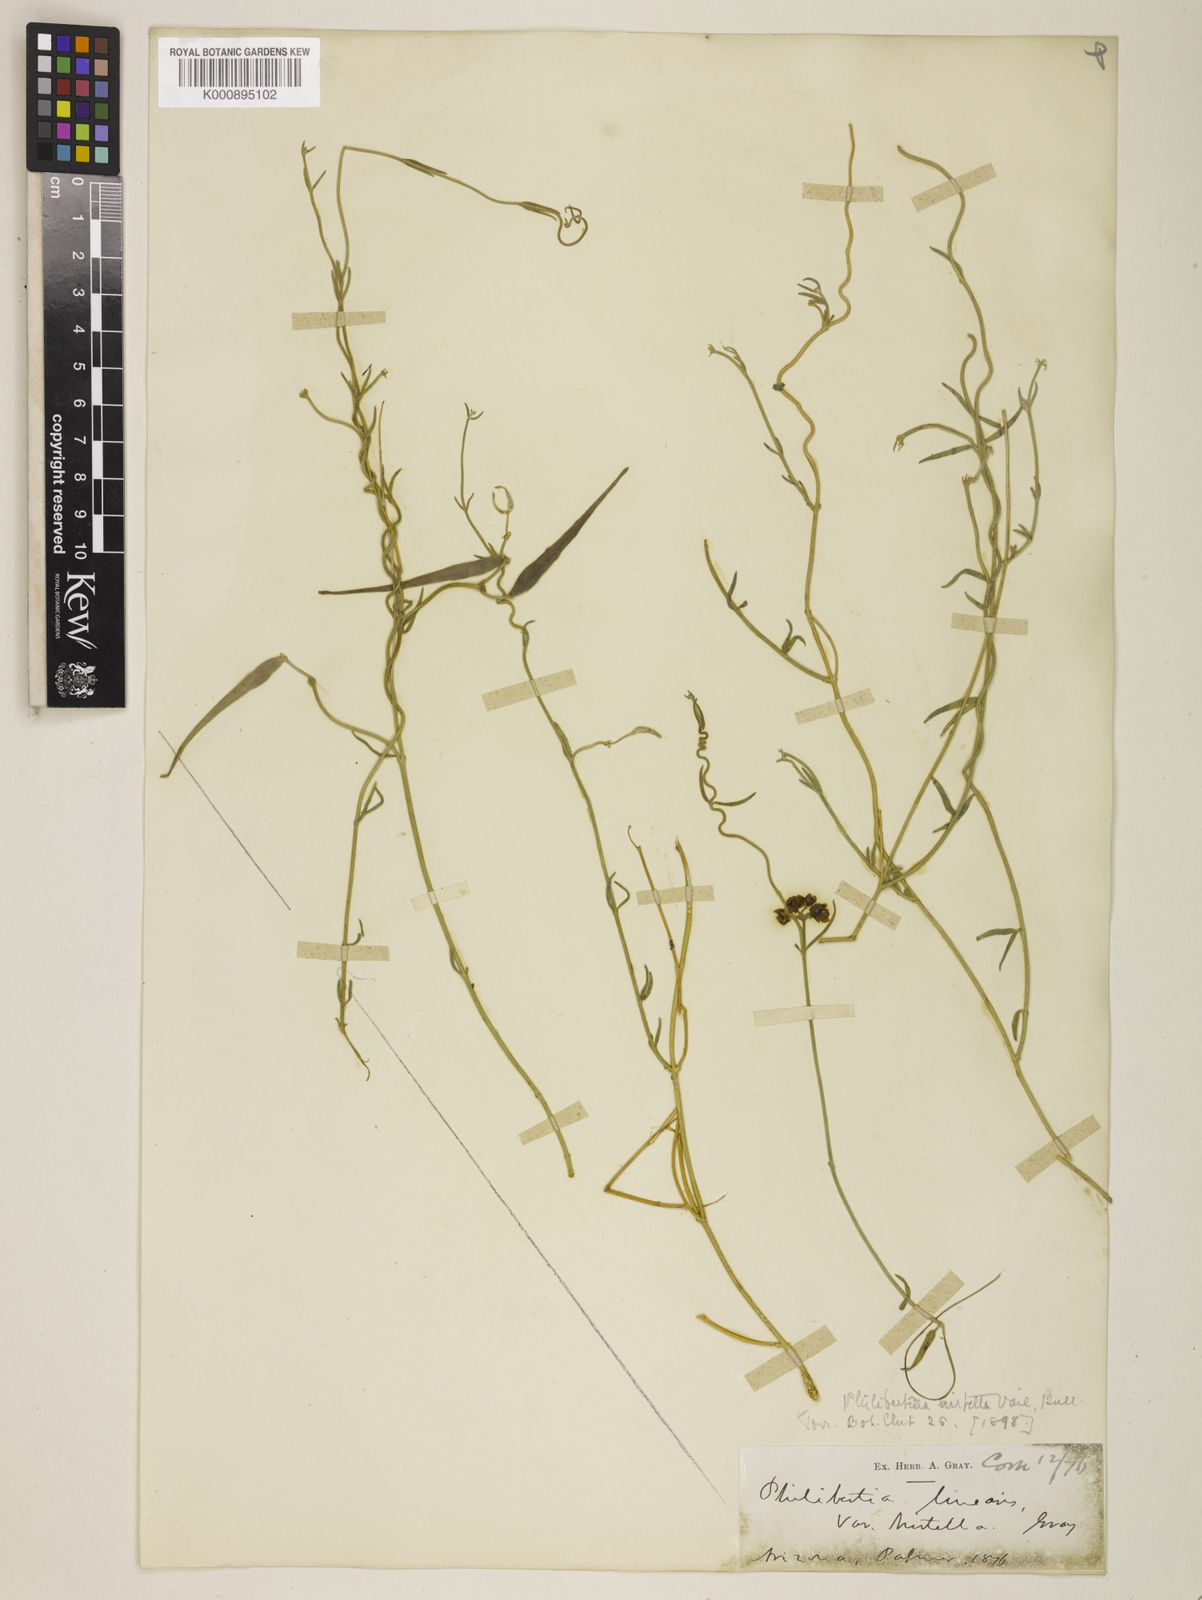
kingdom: Plantae
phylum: Tracheophyta
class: Magnoliopsida
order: Gentianales
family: Apocynaceae
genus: Funastrum
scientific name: Funastrum arenarium
